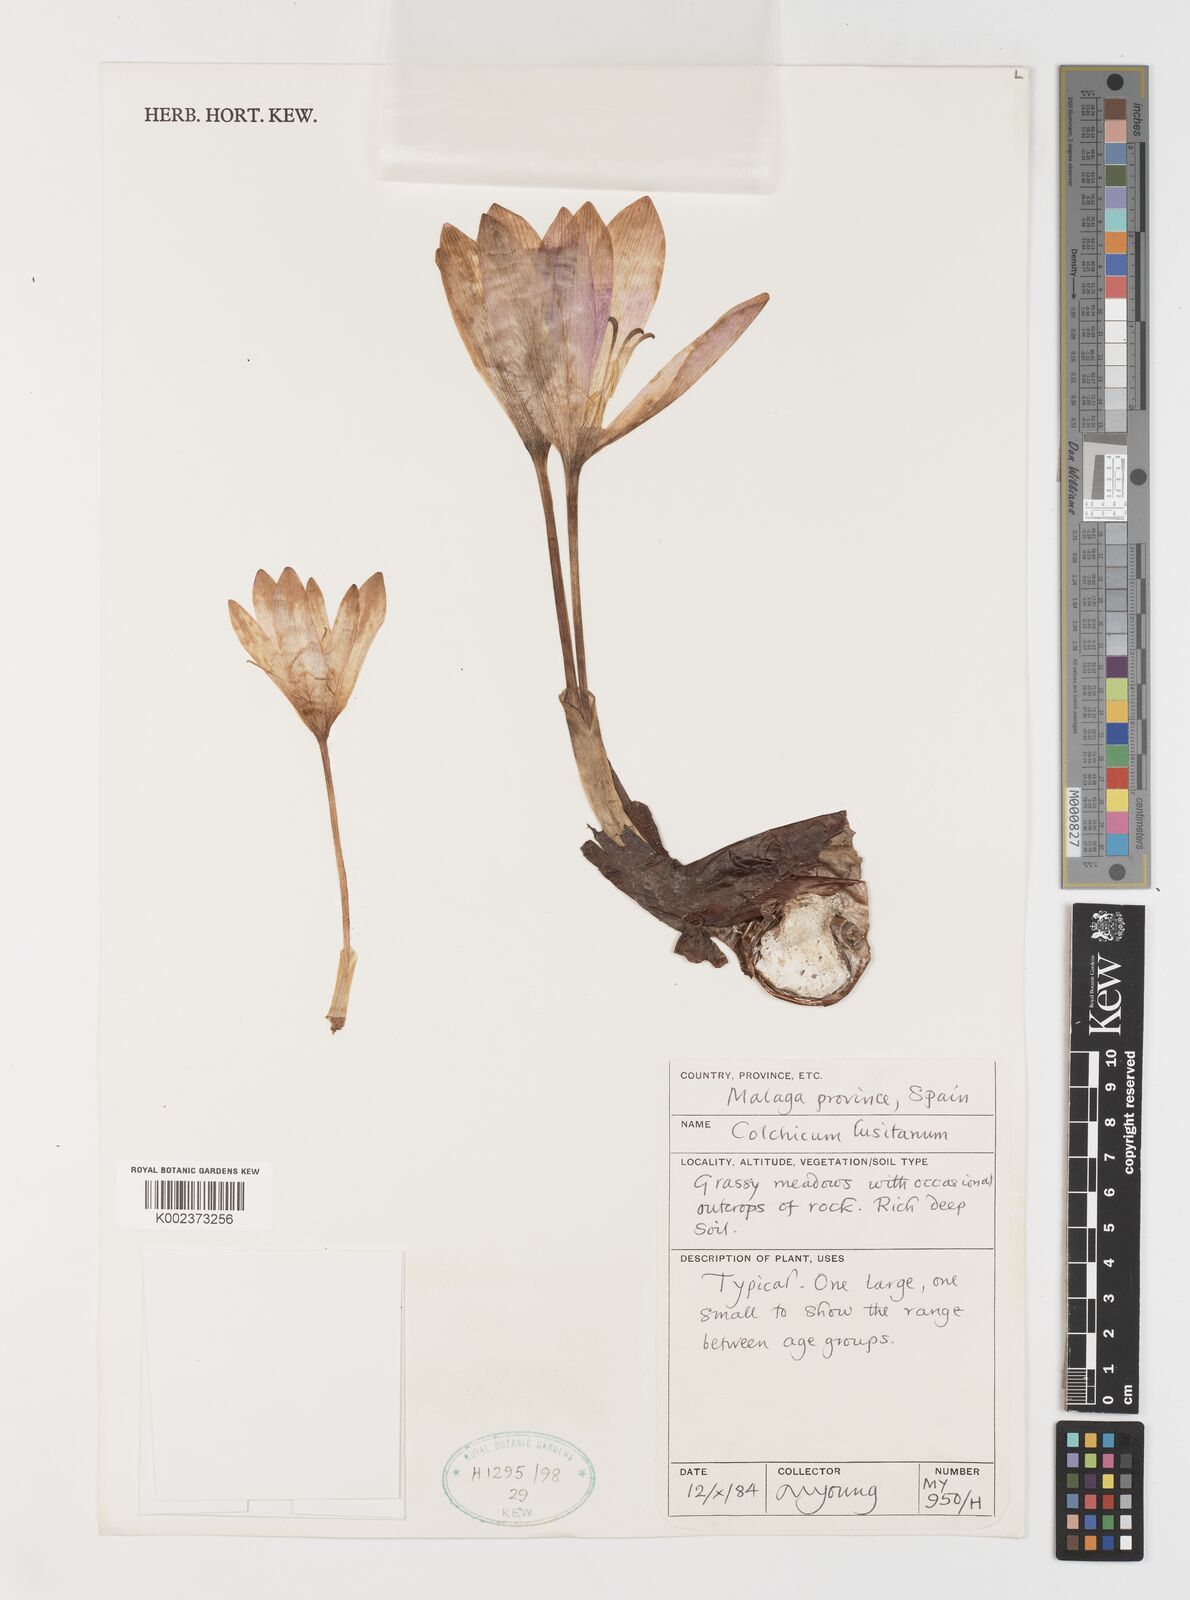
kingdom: Plantae
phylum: Tracheophyta
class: Liliopsida
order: Liliales
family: Colchicaceae
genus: Colchicum
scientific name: Colchicum lusitanum
